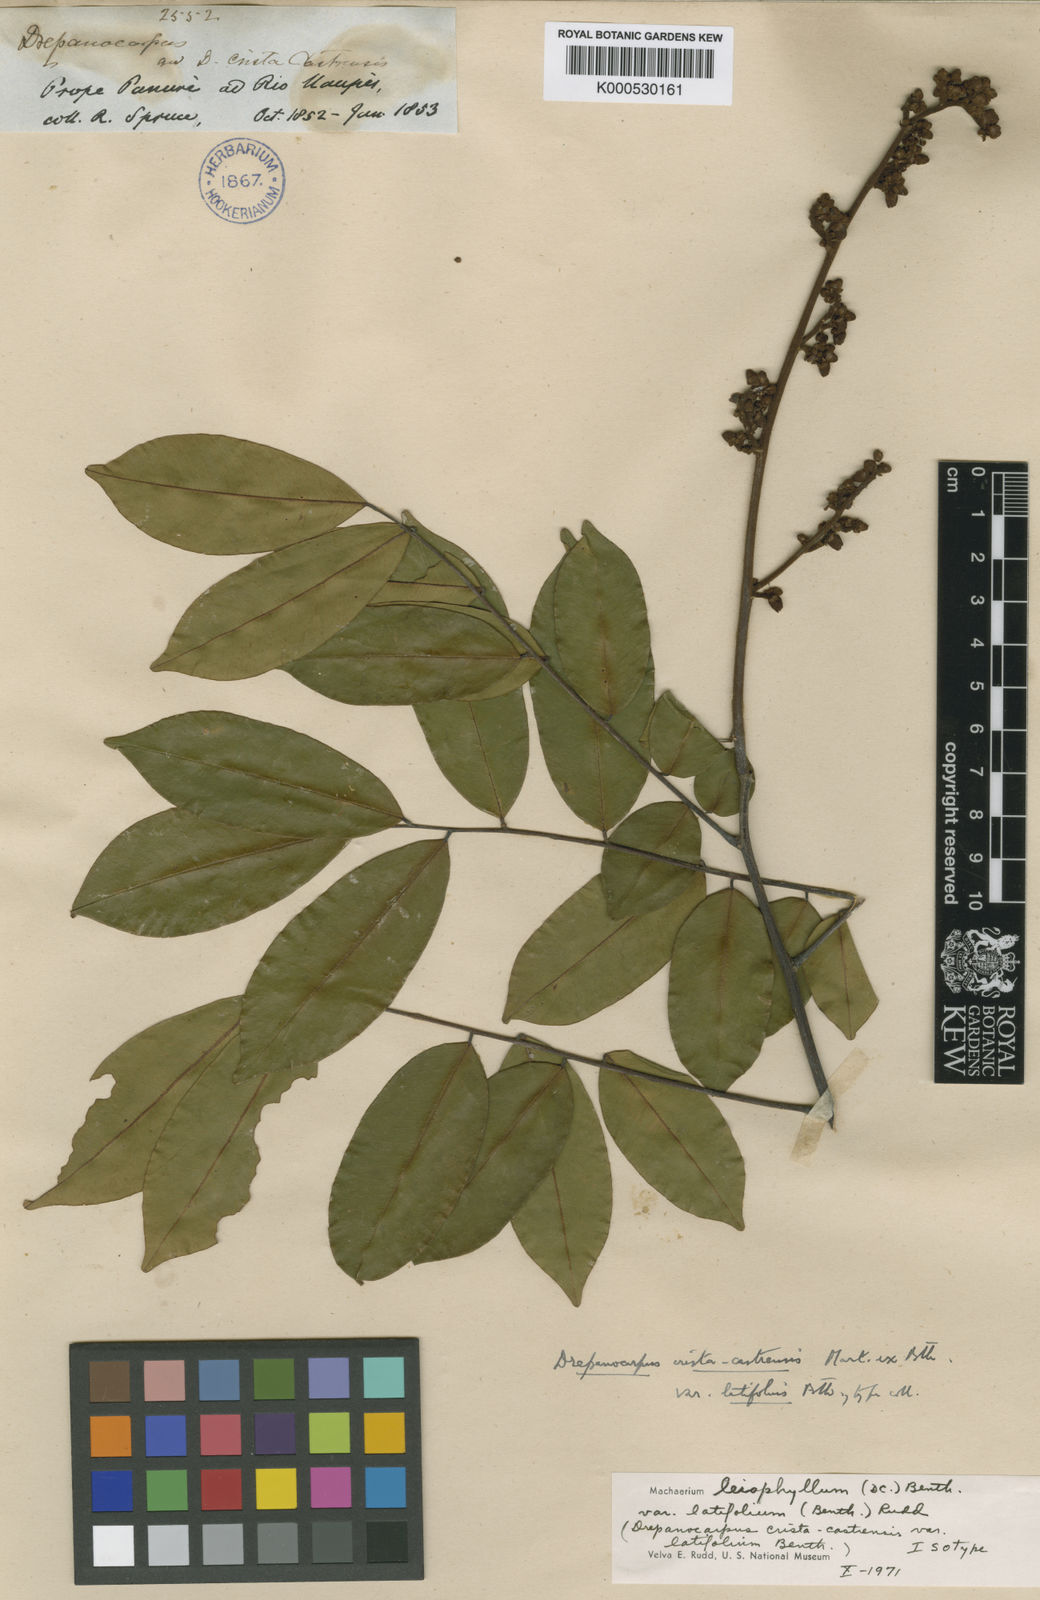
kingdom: Plantae
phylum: Tracheophyta
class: Magnoliopsida
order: Fabales
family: Fabaceae
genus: Machaerium
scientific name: Machaerium leiophyllum
